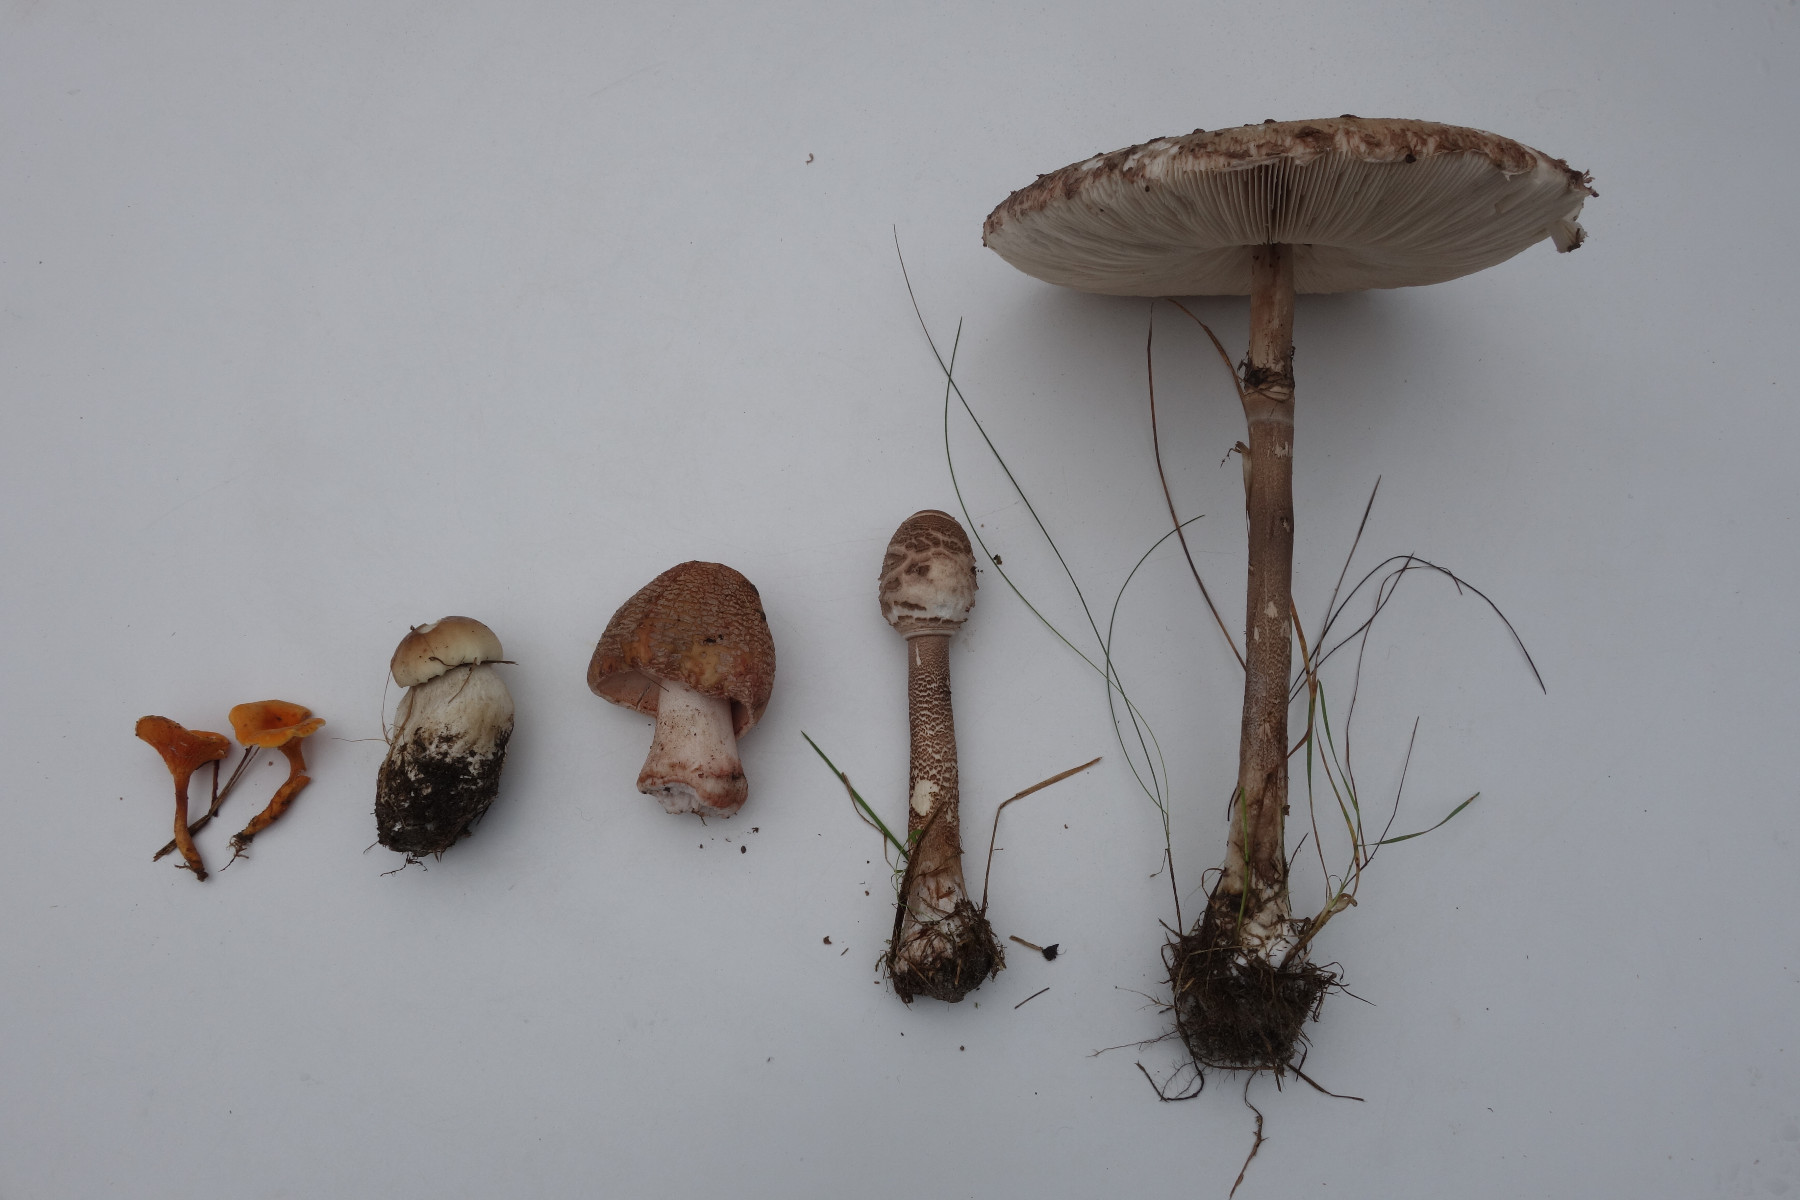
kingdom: Fungi
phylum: Basidiomycota
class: Agaricomycetes
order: Agaricales
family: Agaricaceae
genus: Macrolepiota
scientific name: Macrolepiota procera
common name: stor kæmpeparasolhat
